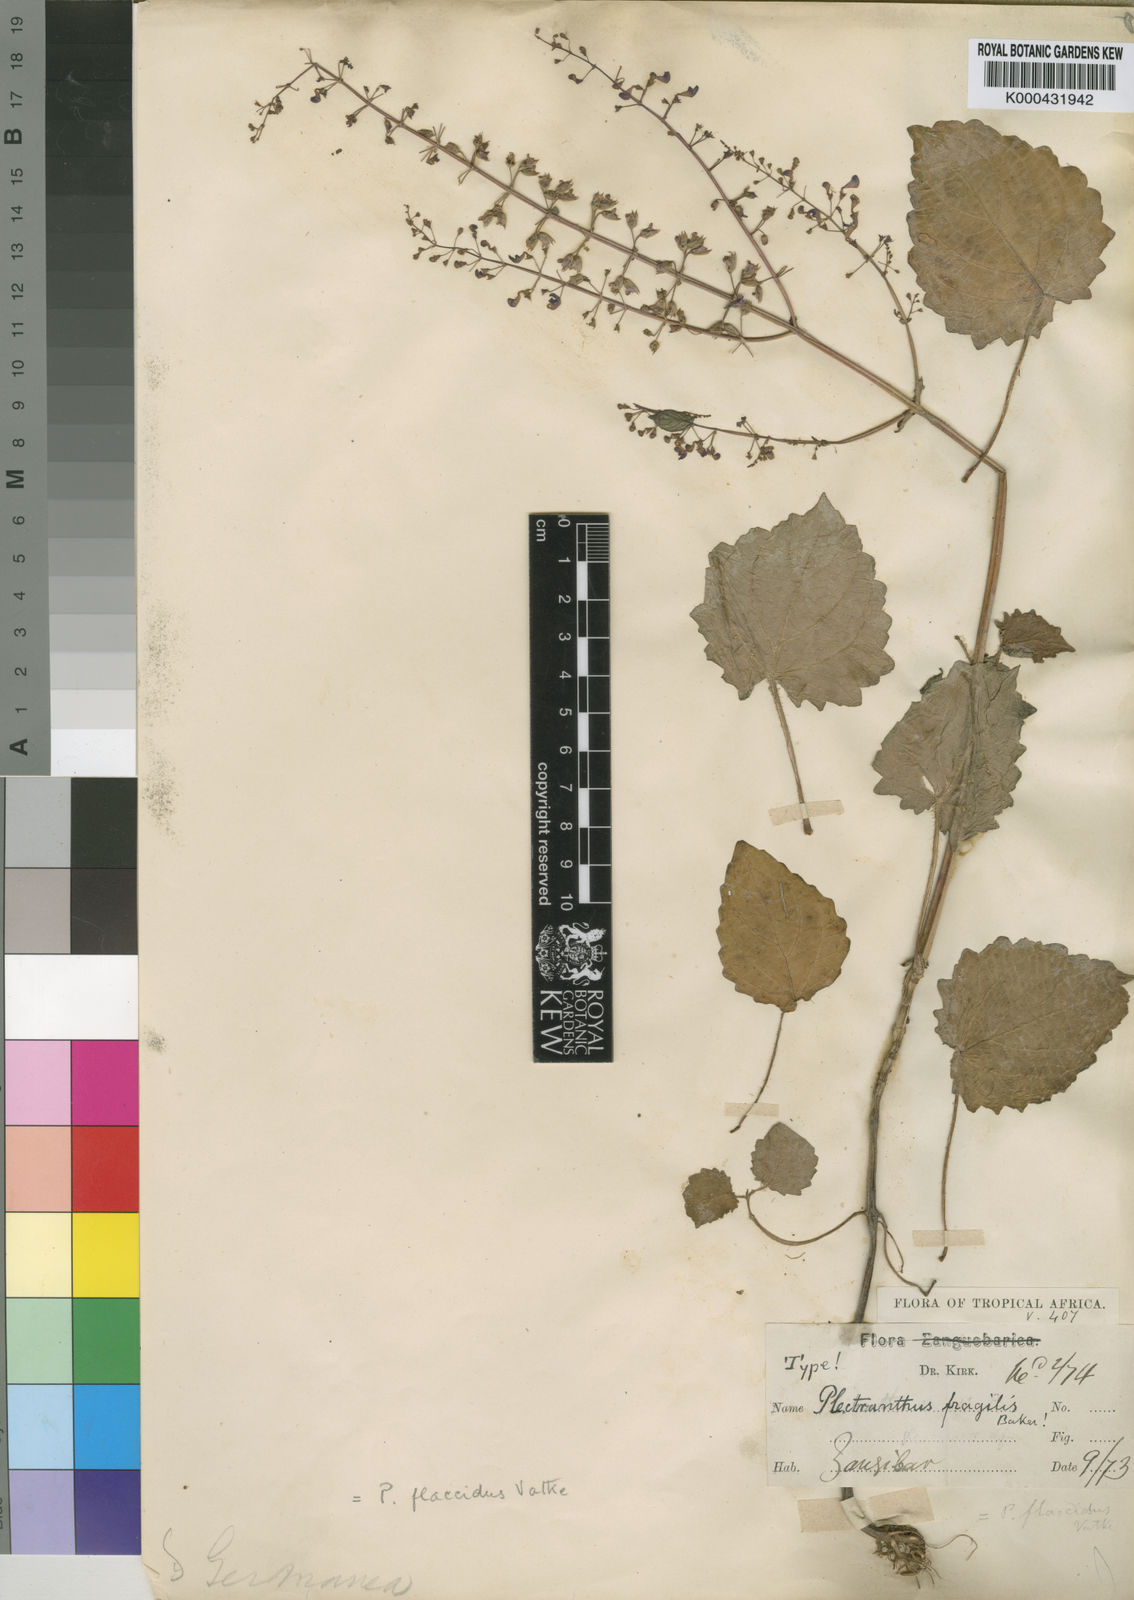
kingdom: Plantae
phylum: Tracheophyta
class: Magnoliopsida
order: Lamiales
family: Lamiaceae
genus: Plectranthus
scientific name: Plectranthus
